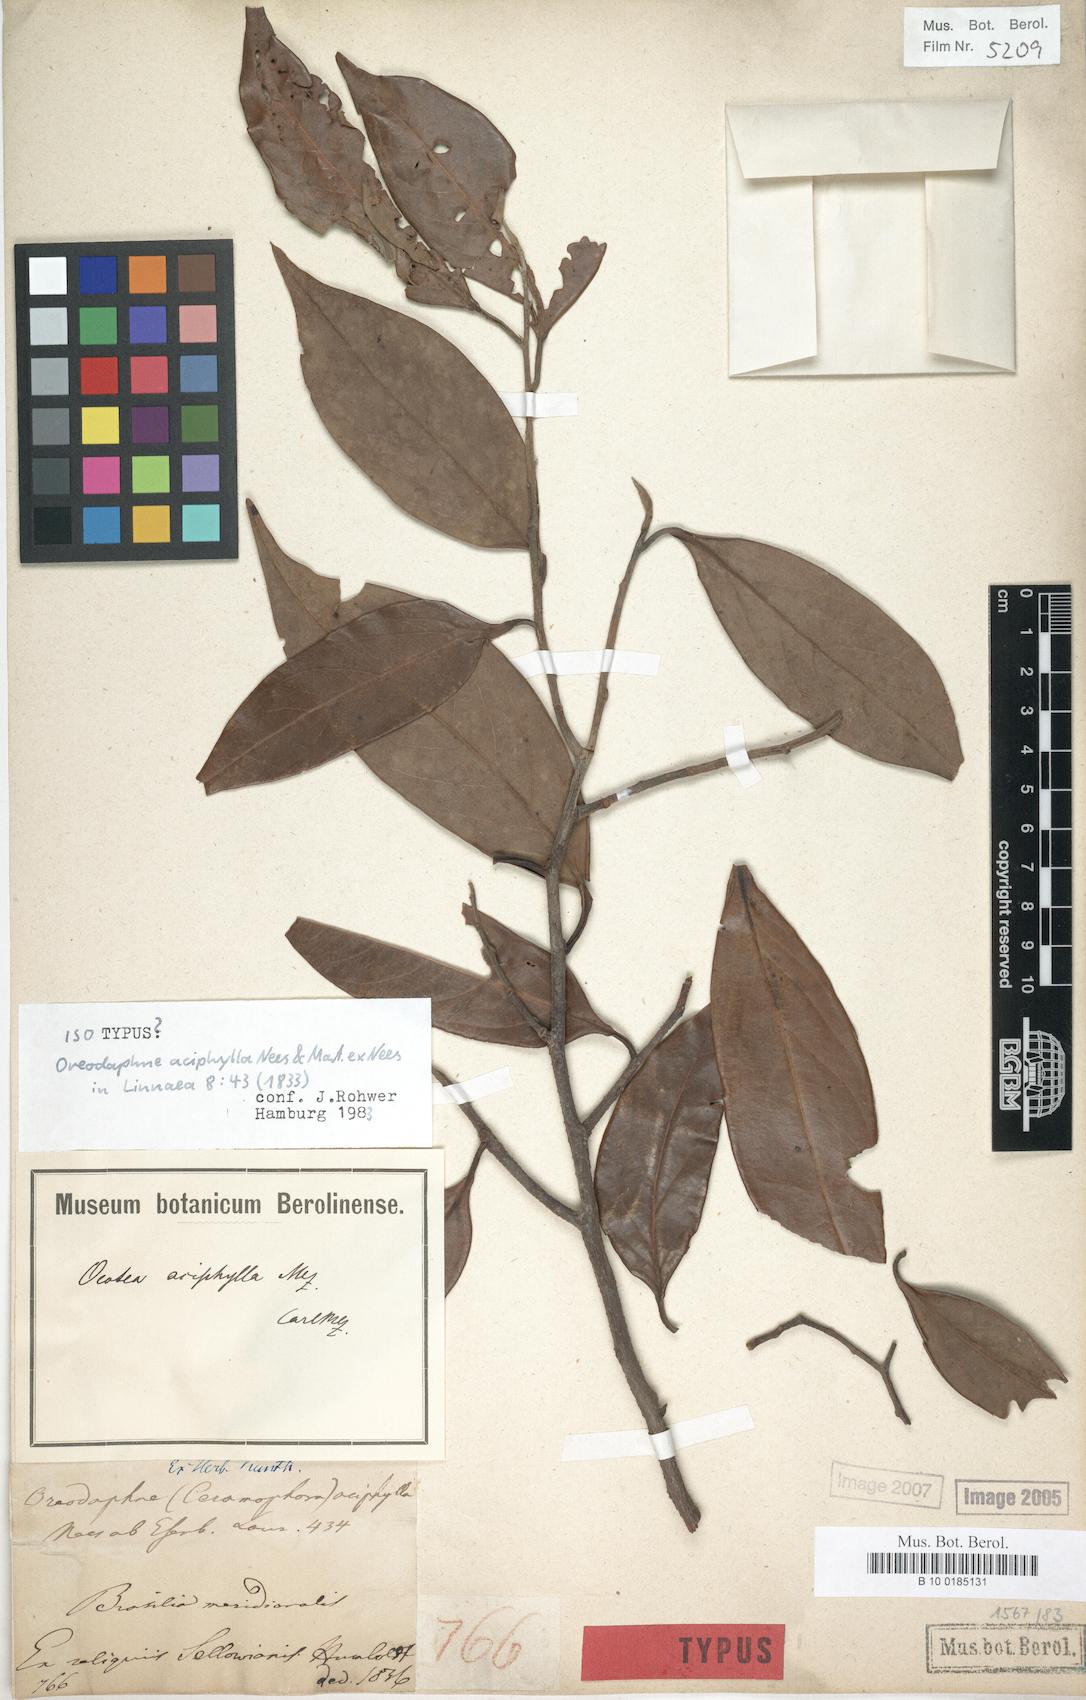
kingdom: Plantae
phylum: Tracheophyta
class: Magnoliopsida
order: Laurales
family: Lauraceae
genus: Ocotea
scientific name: Ocotea aciphylla
